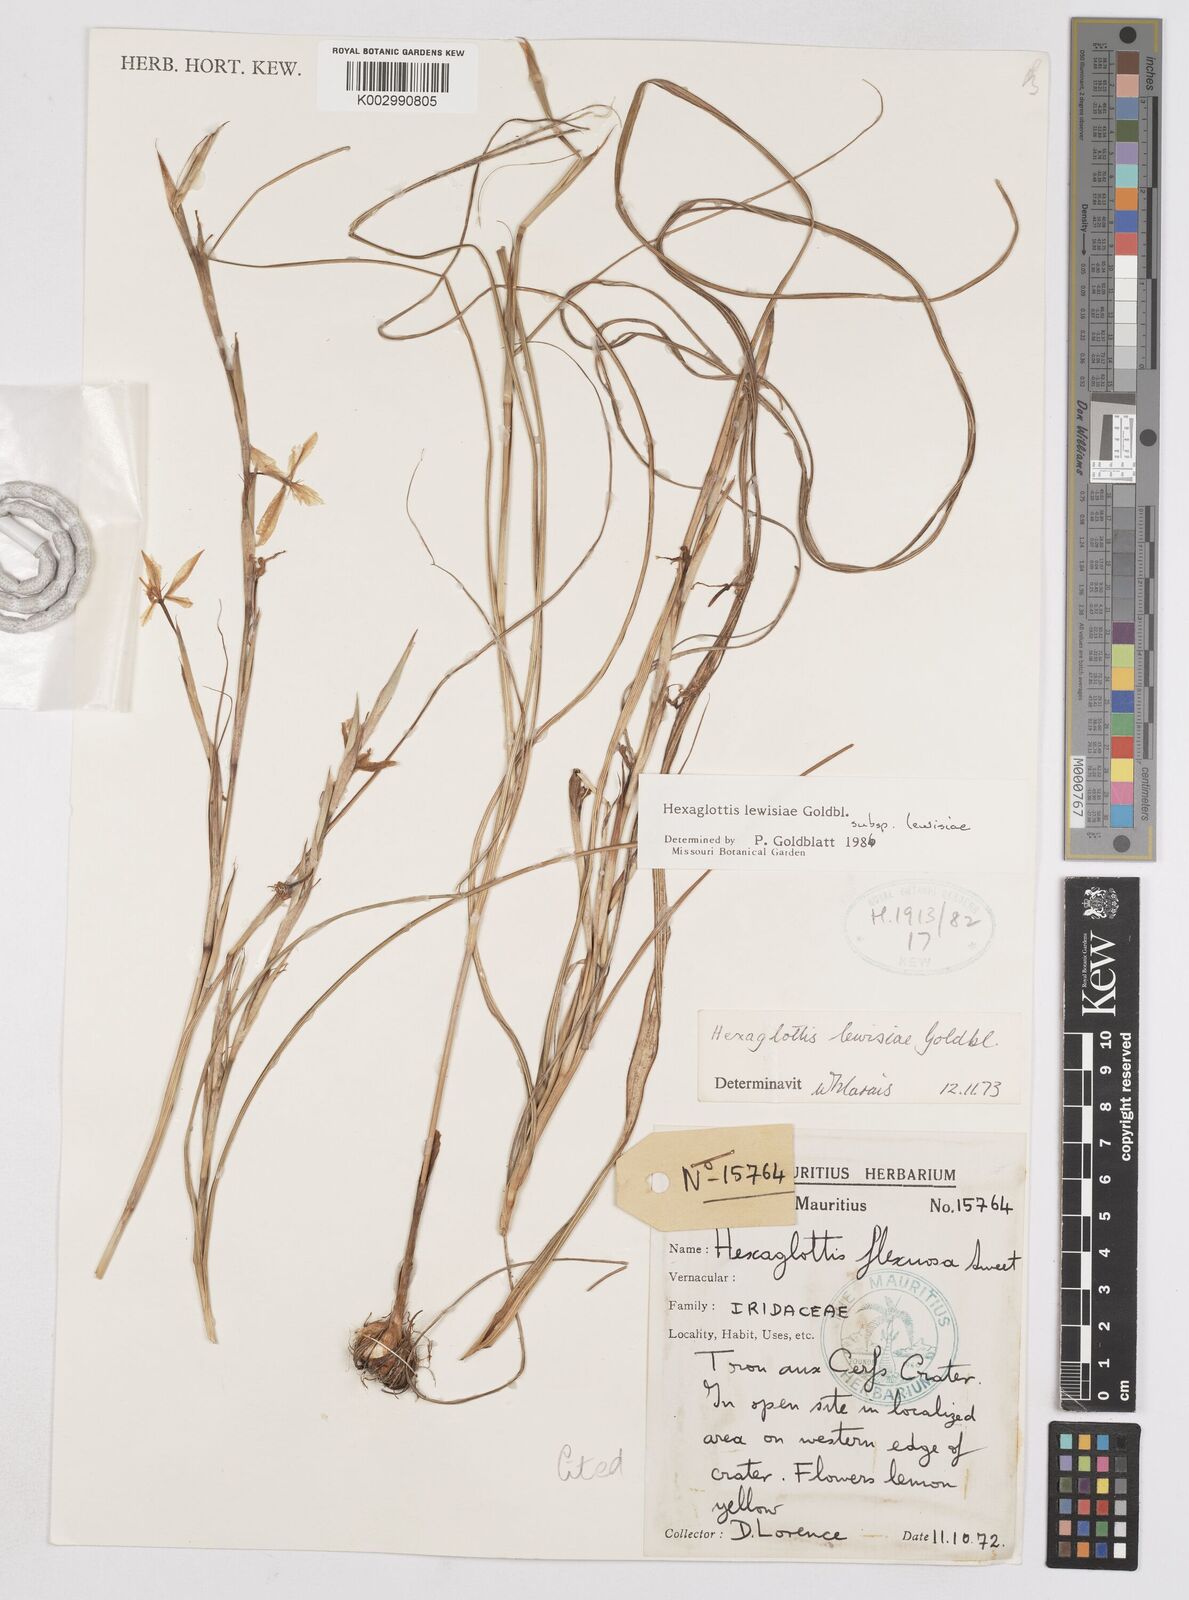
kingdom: Plantae
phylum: Tracheophyta
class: Liliopsida
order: Asparagales
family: Iridaceae
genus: Moraea
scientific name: Moraea lewisiae
